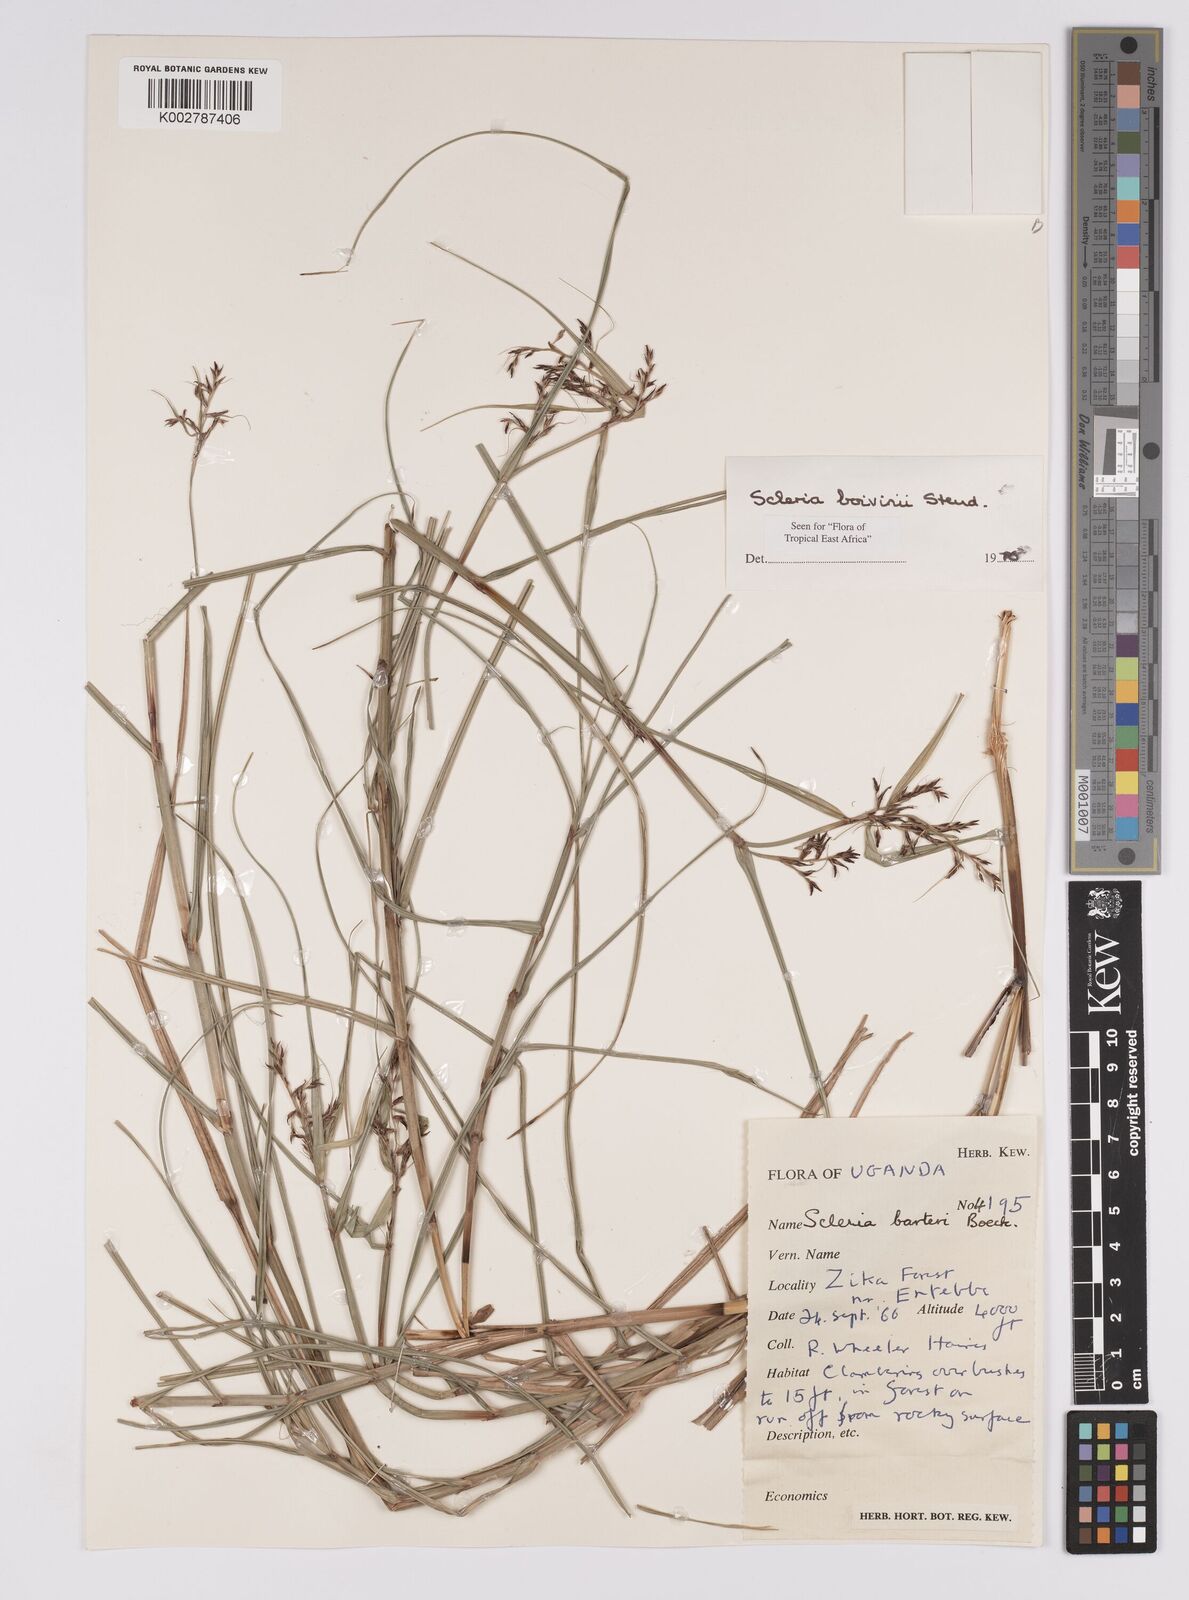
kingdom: Plantae
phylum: Tracheophyta
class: Liliopsida
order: Poales
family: Cyperaceae
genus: Scleria
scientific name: Scleria boivinii
